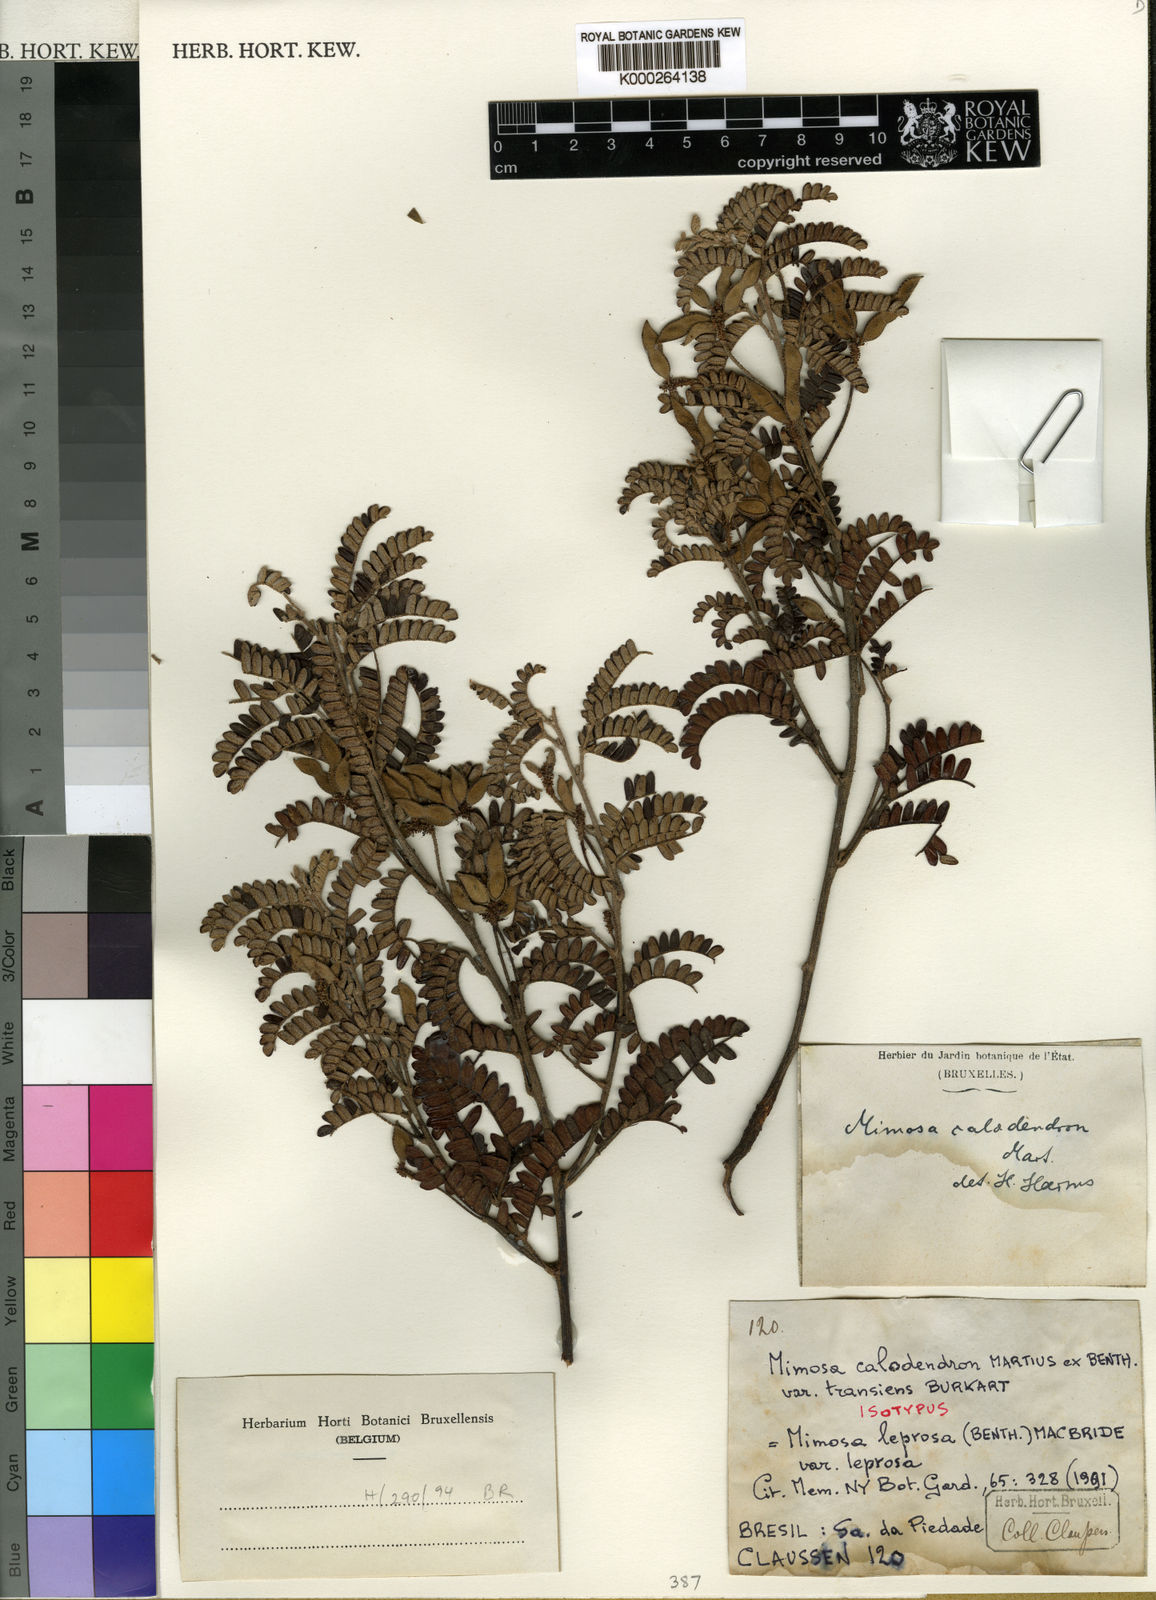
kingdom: Plantae
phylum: Tracheophyta
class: Magnoliopsida
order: Fabales
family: Fabaceae
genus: Mimosa
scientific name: Mimosa calodendron
